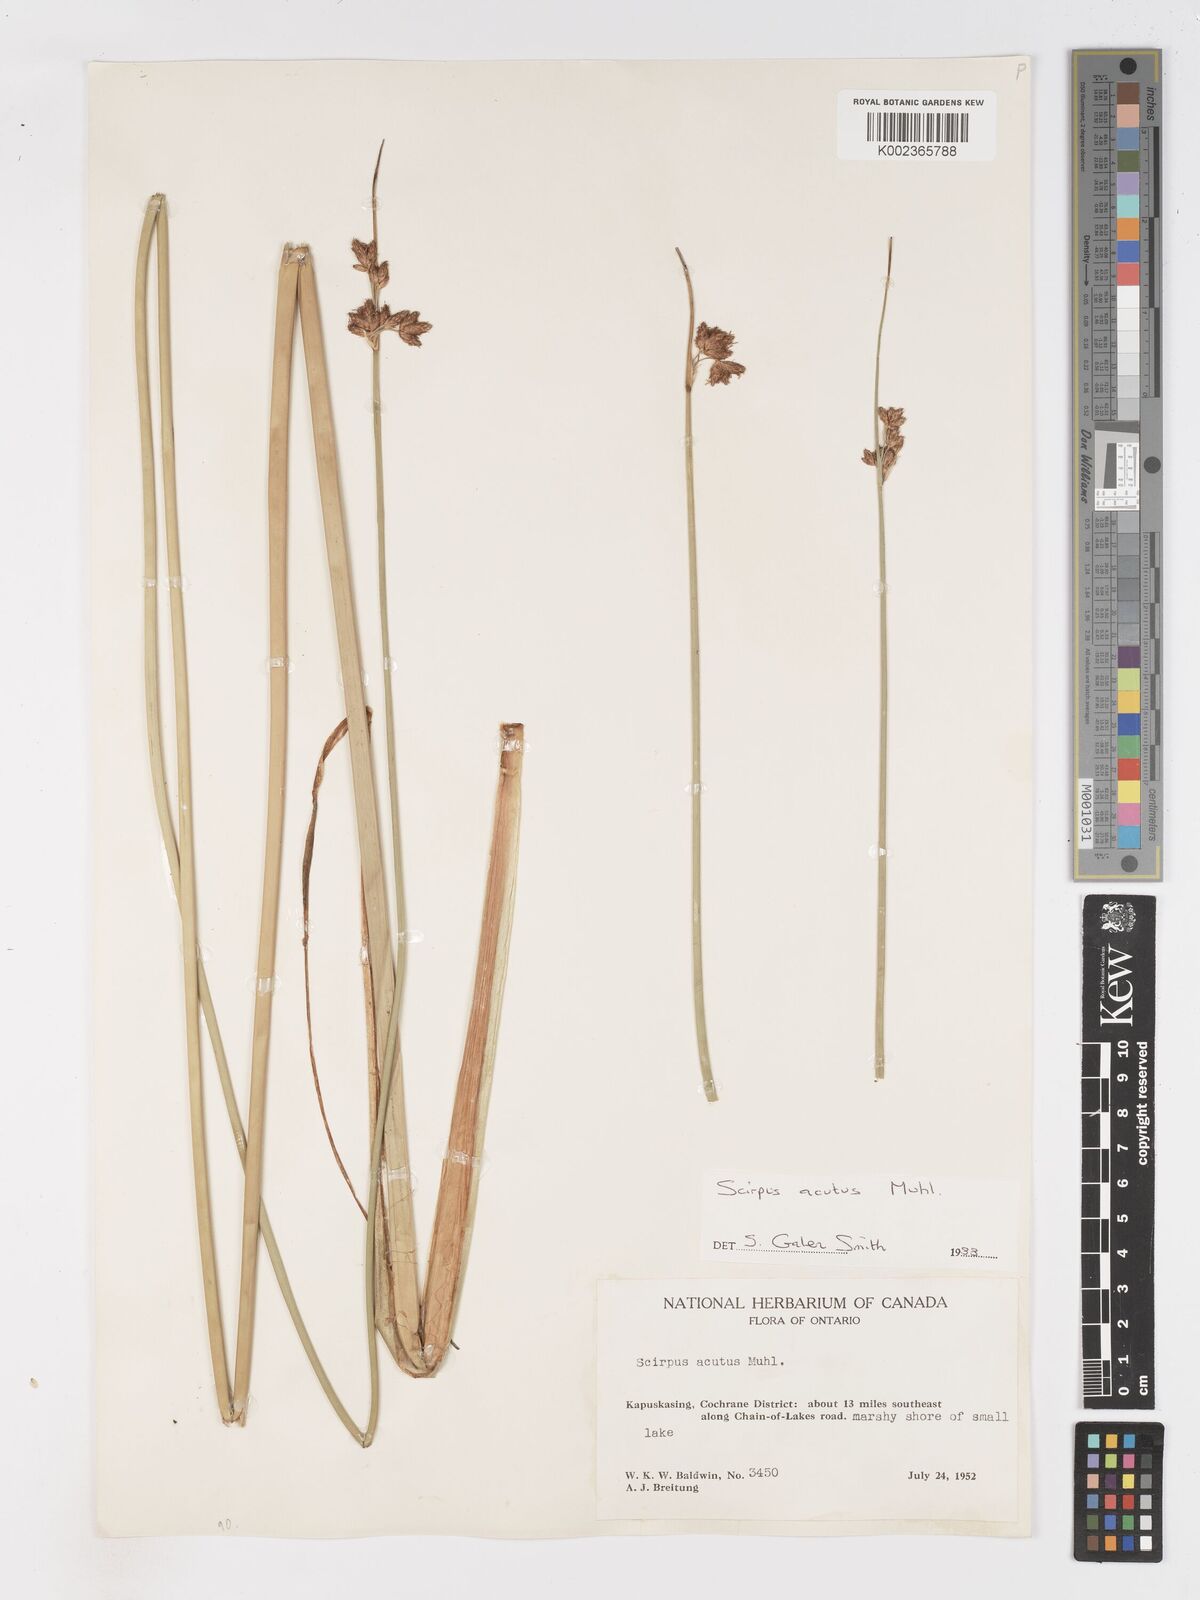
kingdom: Plantae
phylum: Tracheophyta
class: Liliopsida
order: Poales
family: Cyperaceae
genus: Schoenoplectus
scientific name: Schoenoplectus lacustris
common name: Common club-rush
